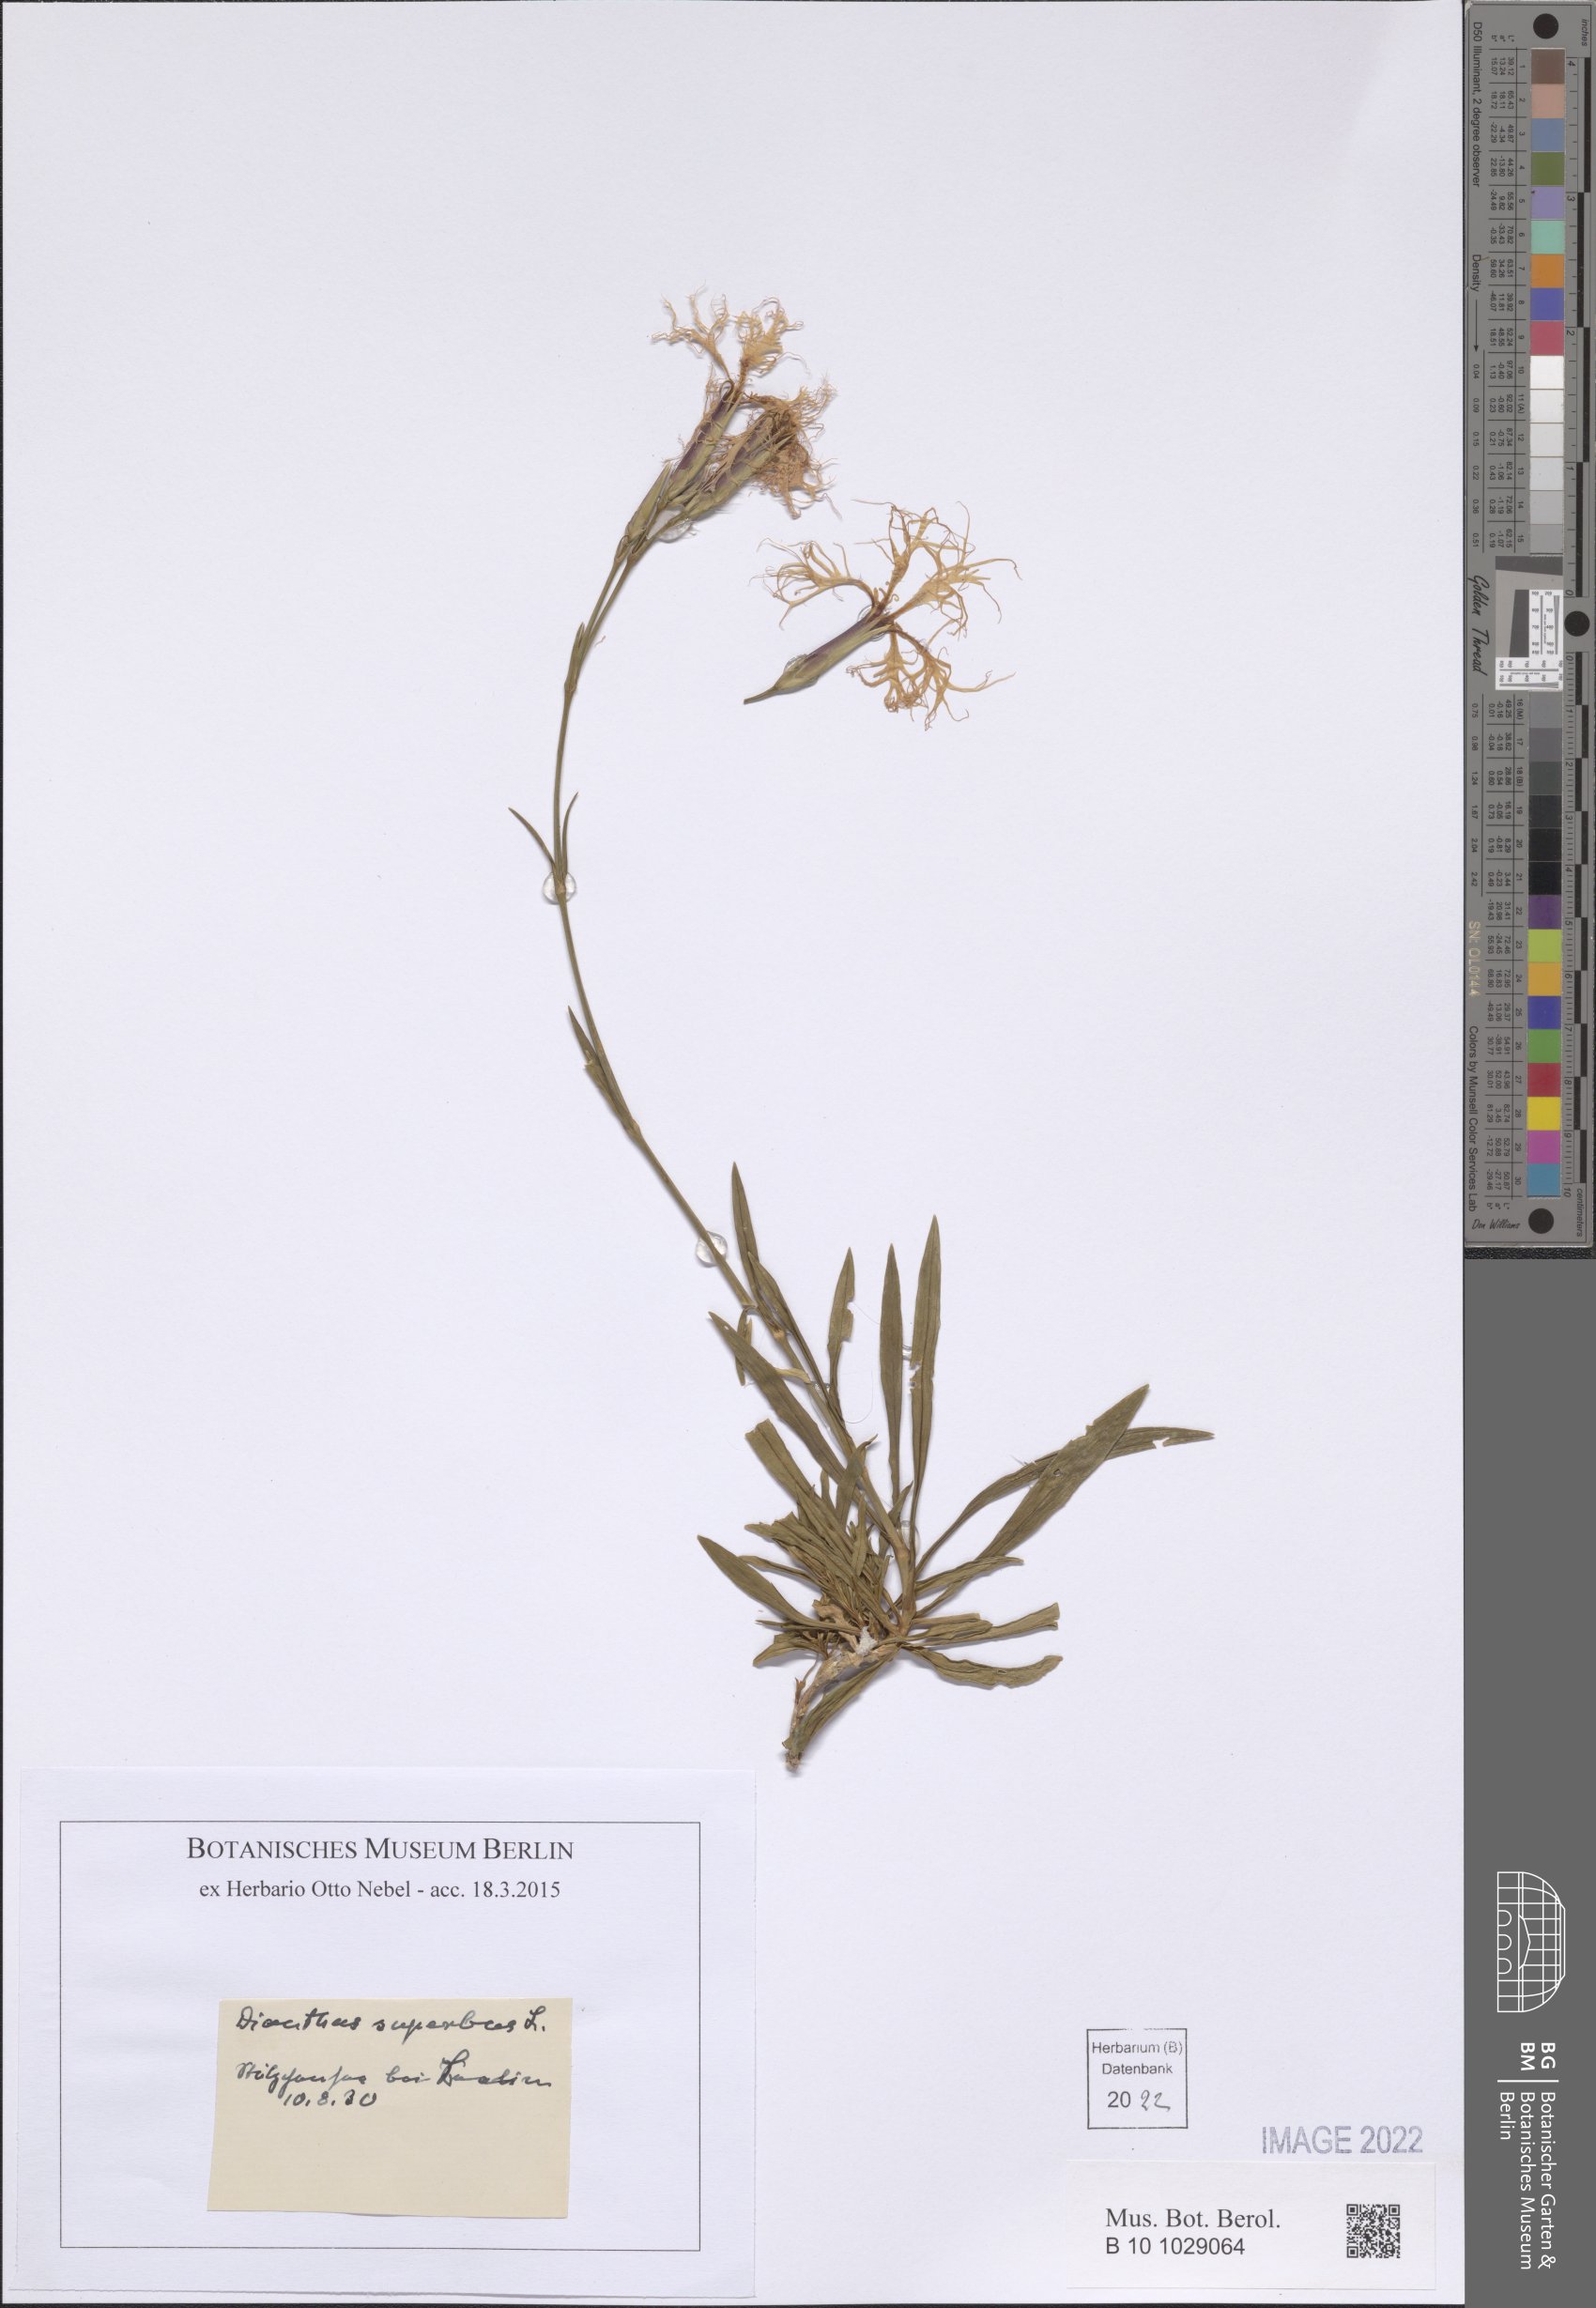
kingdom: Plantae
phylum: Tracheophyta
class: Magnoliopsida
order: Caryophyllales
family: Caryophyllaceae
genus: Dianthus
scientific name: Dianthus superbus
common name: Fringed pink
